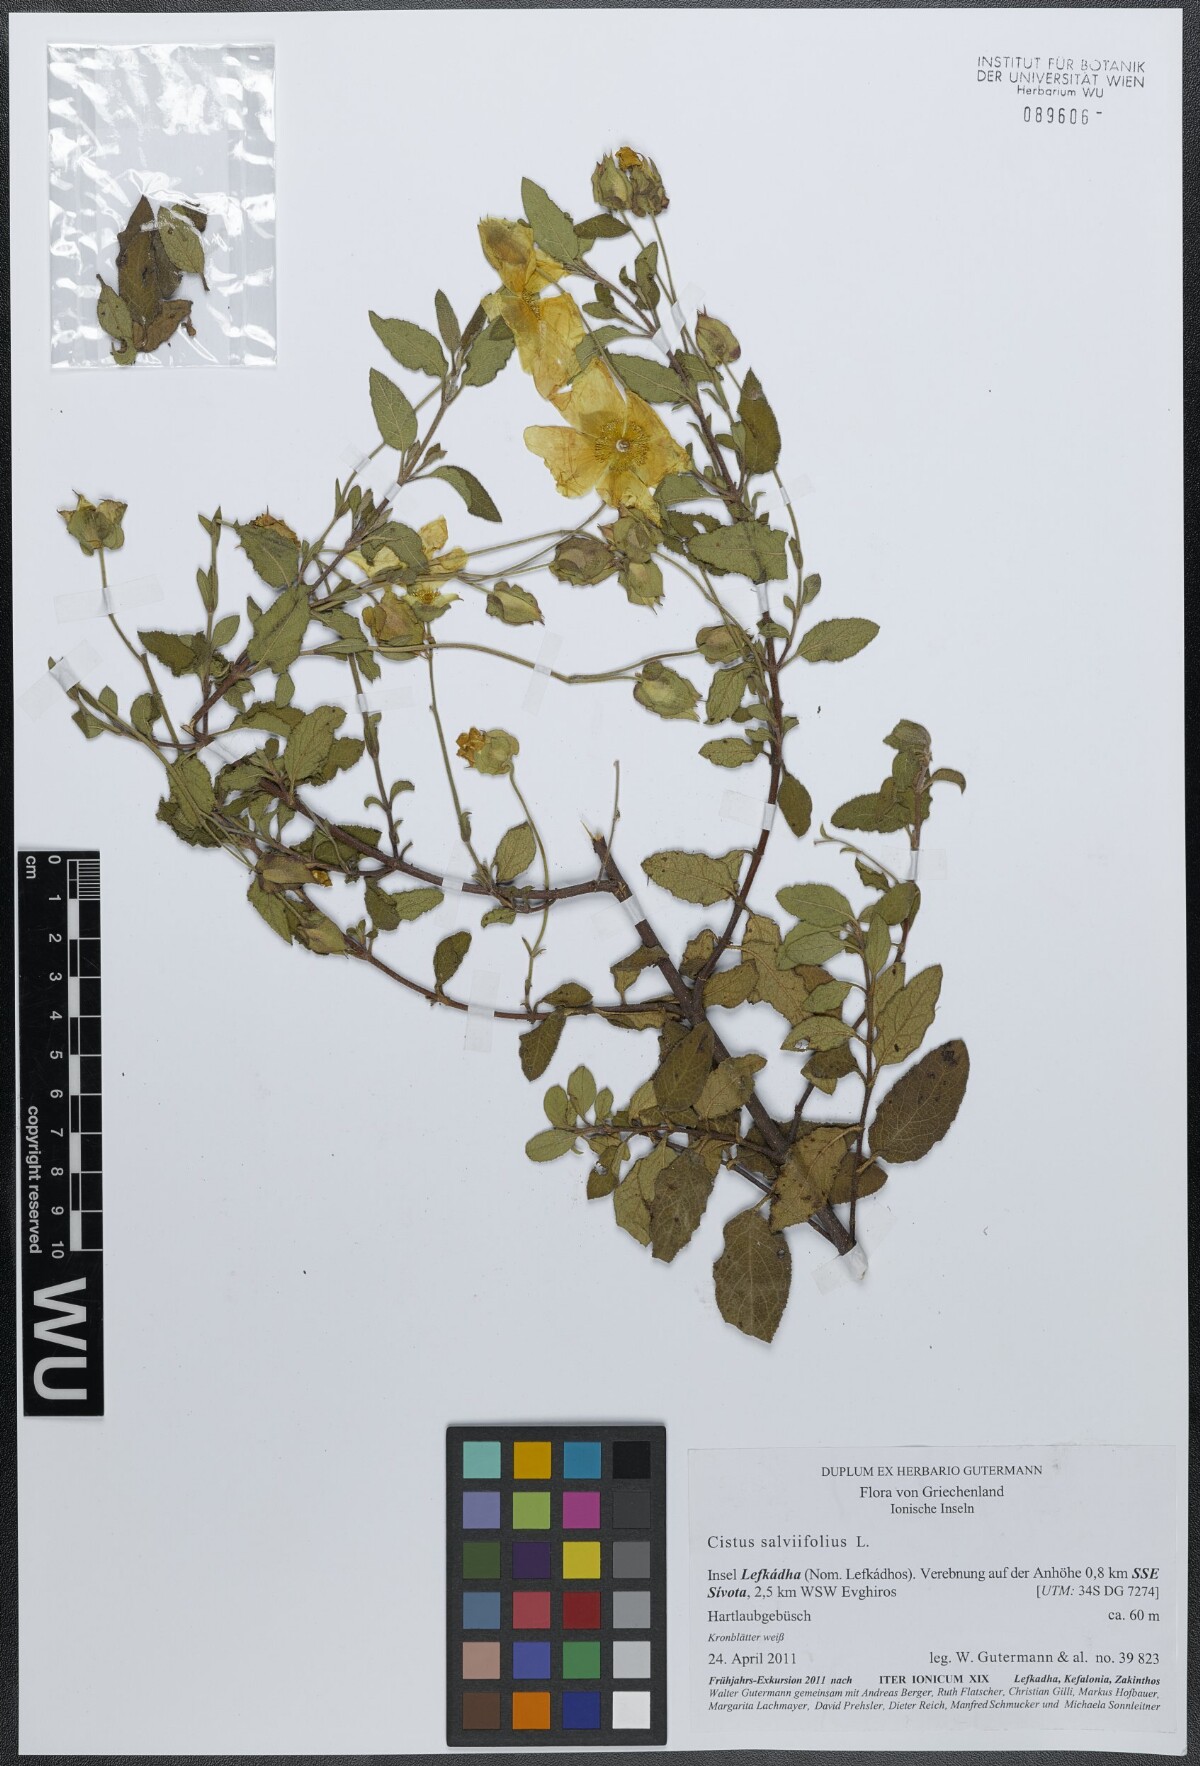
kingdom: Plantae
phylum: Tracheophyta
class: Magnoliopsida
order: Malvales
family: Cistaceae
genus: Cistus
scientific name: Cistus salviifolius
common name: Salvia cistus
